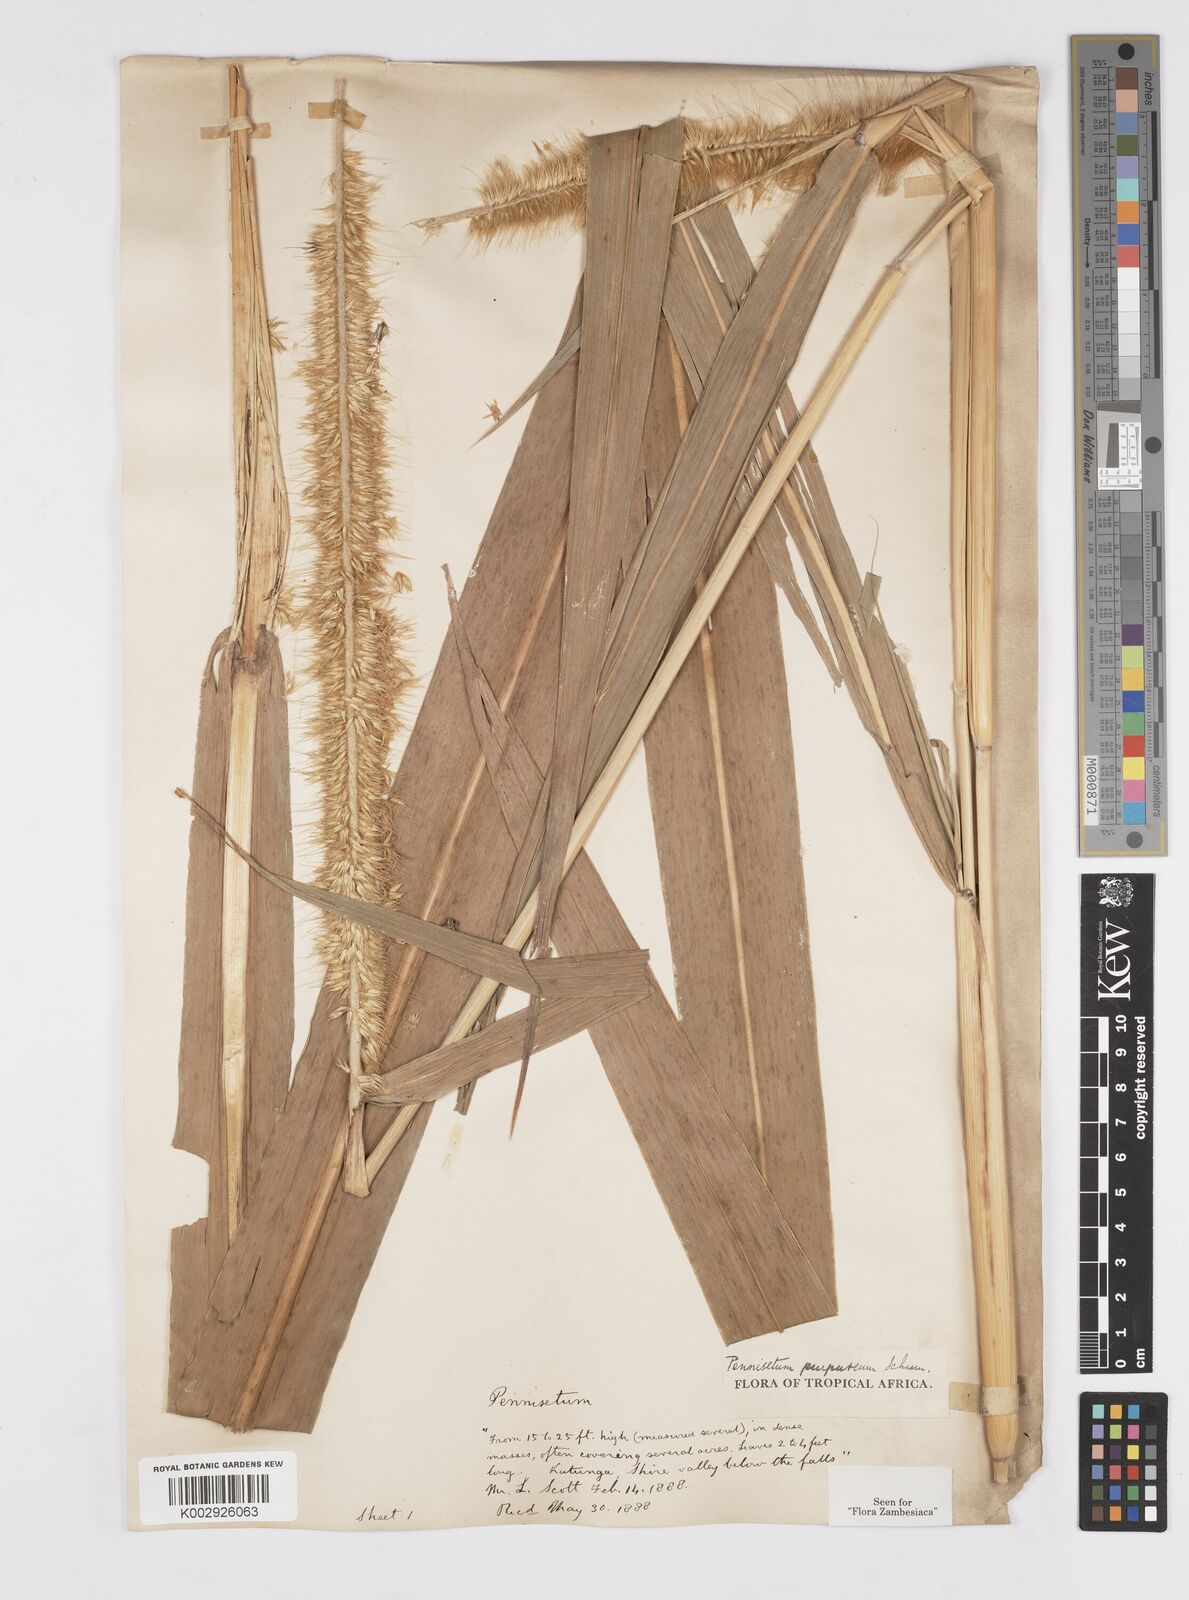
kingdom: Plantae
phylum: Tracheophyta
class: Liliopsida
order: Poales
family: Poaceae
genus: Cenchrus
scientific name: Cenchrus purpureus
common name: Elephant grass
